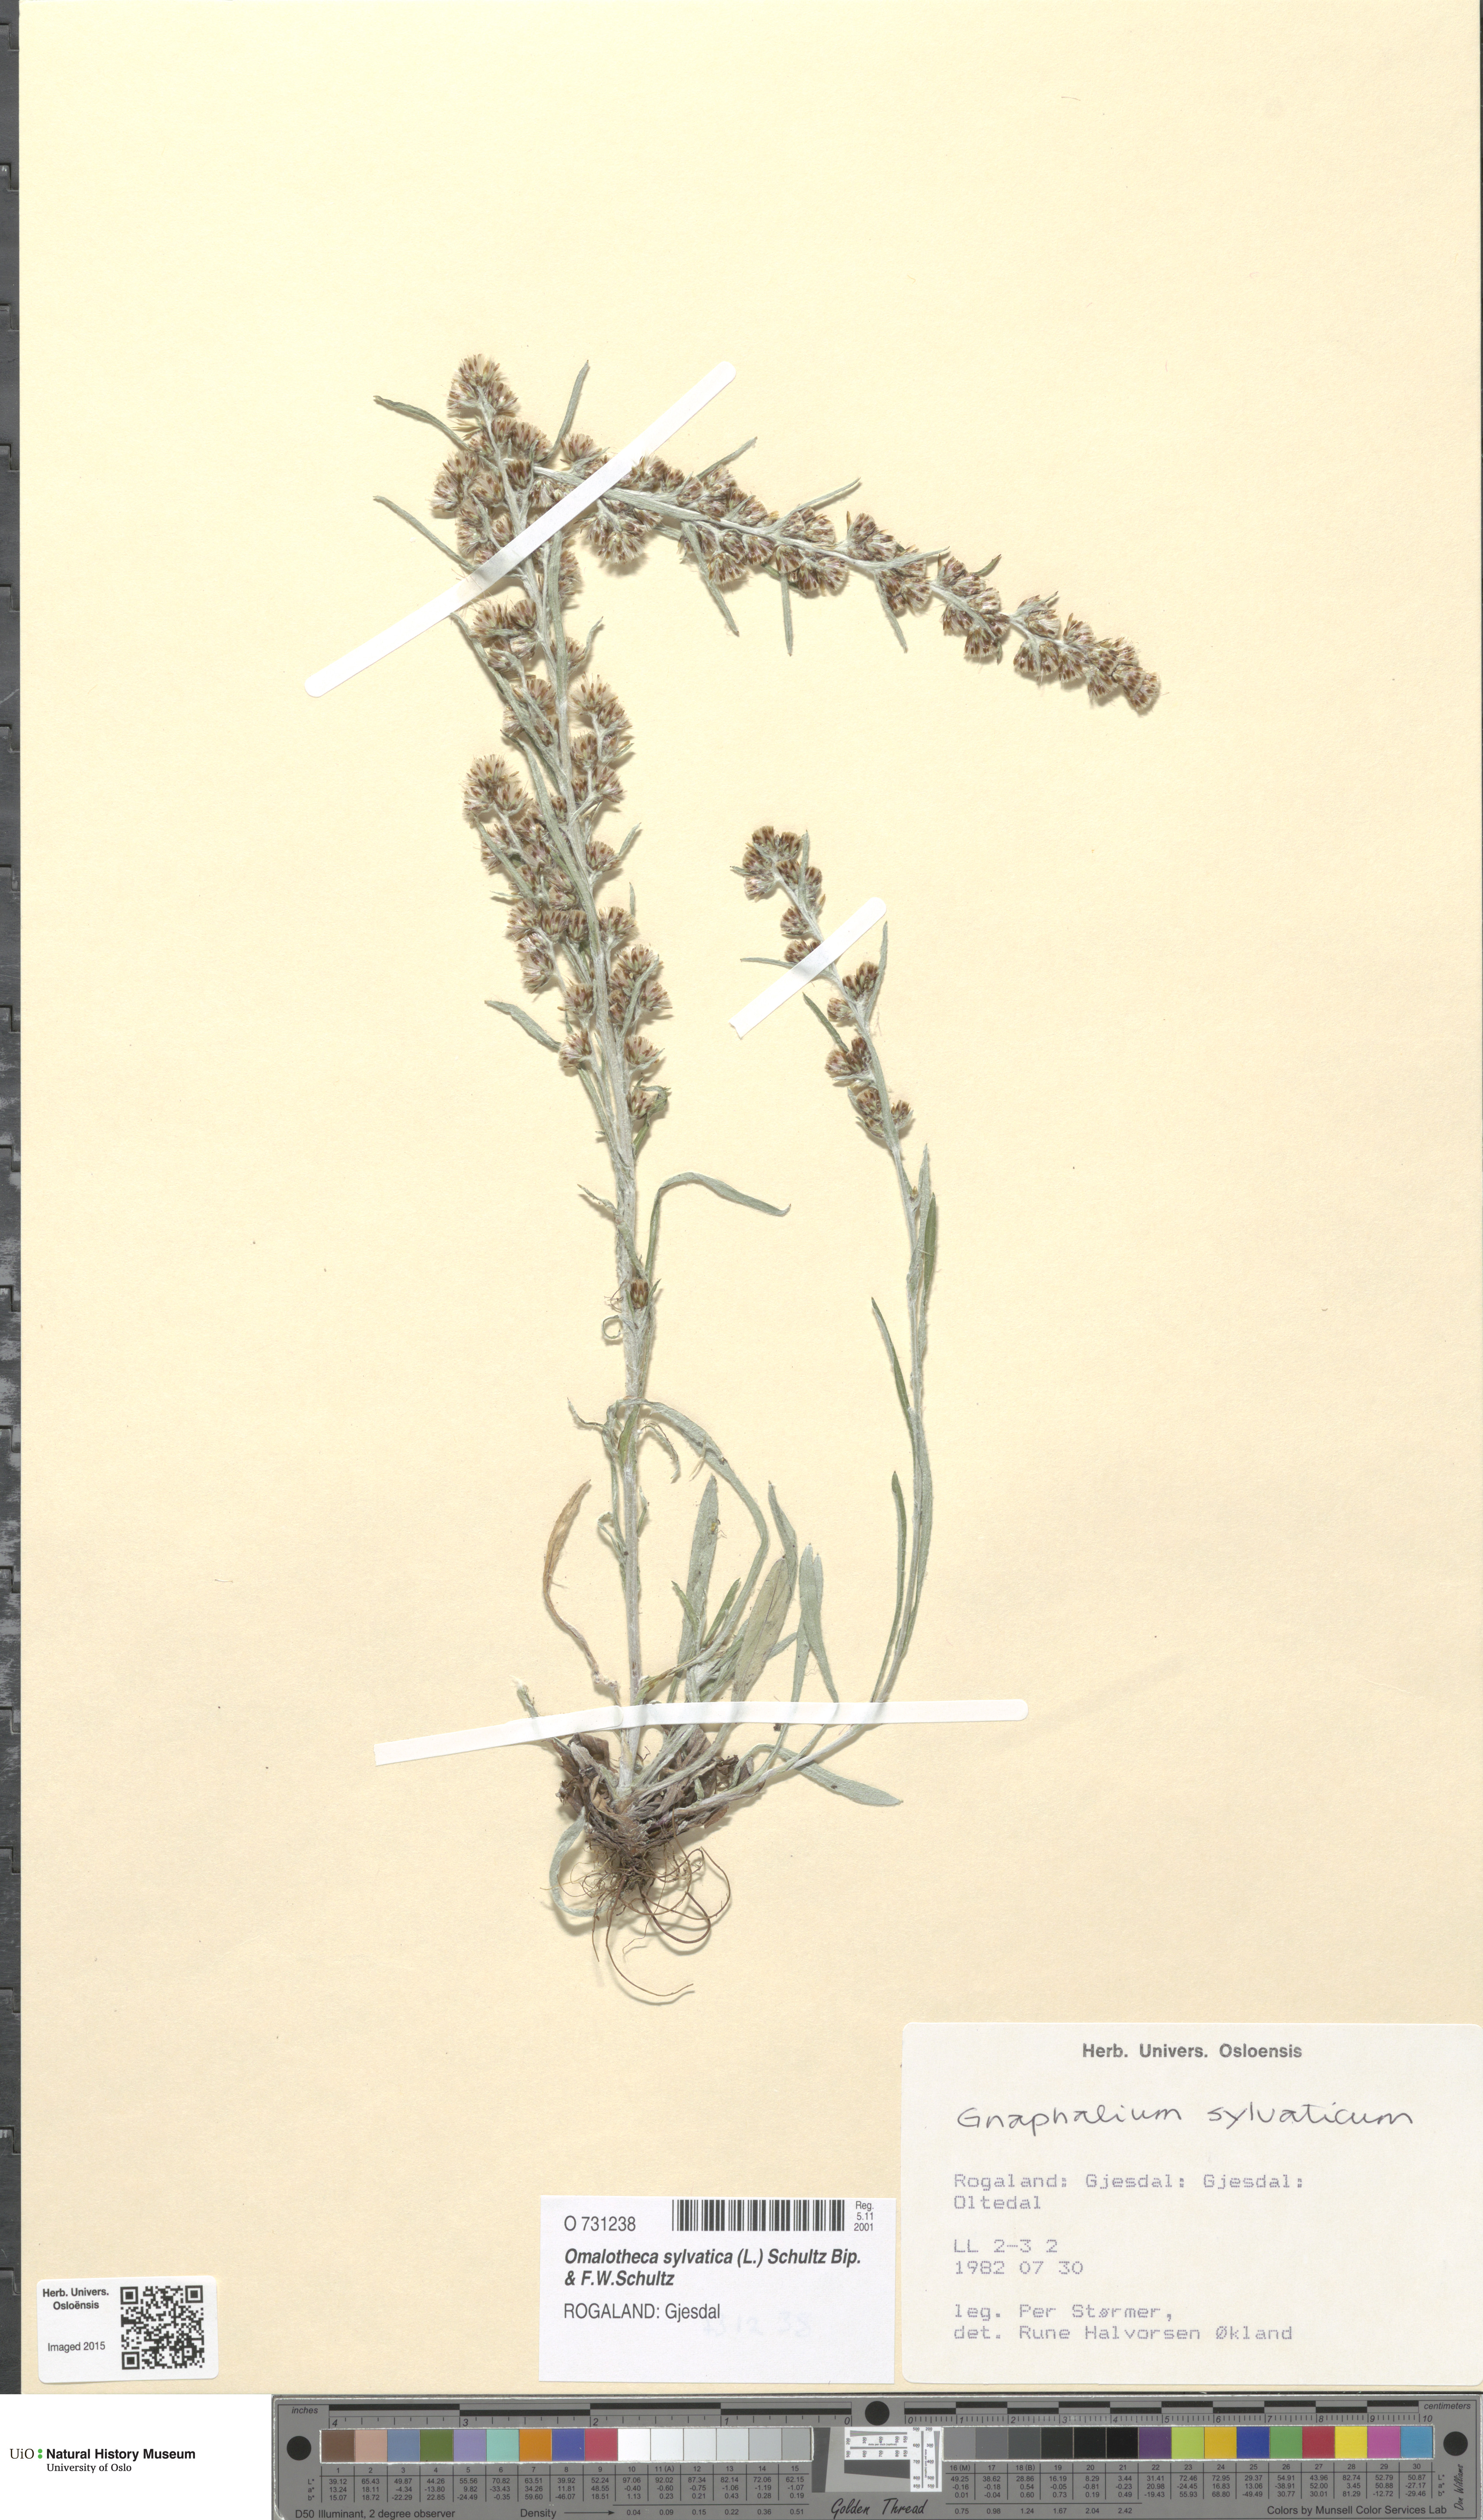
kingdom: Plantae
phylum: Tracheophyta
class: Magnoliopsida
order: Asterales
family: Asteraceae
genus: Omalotheca
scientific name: Omalotheca sylvatica
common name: Heath cudweed
